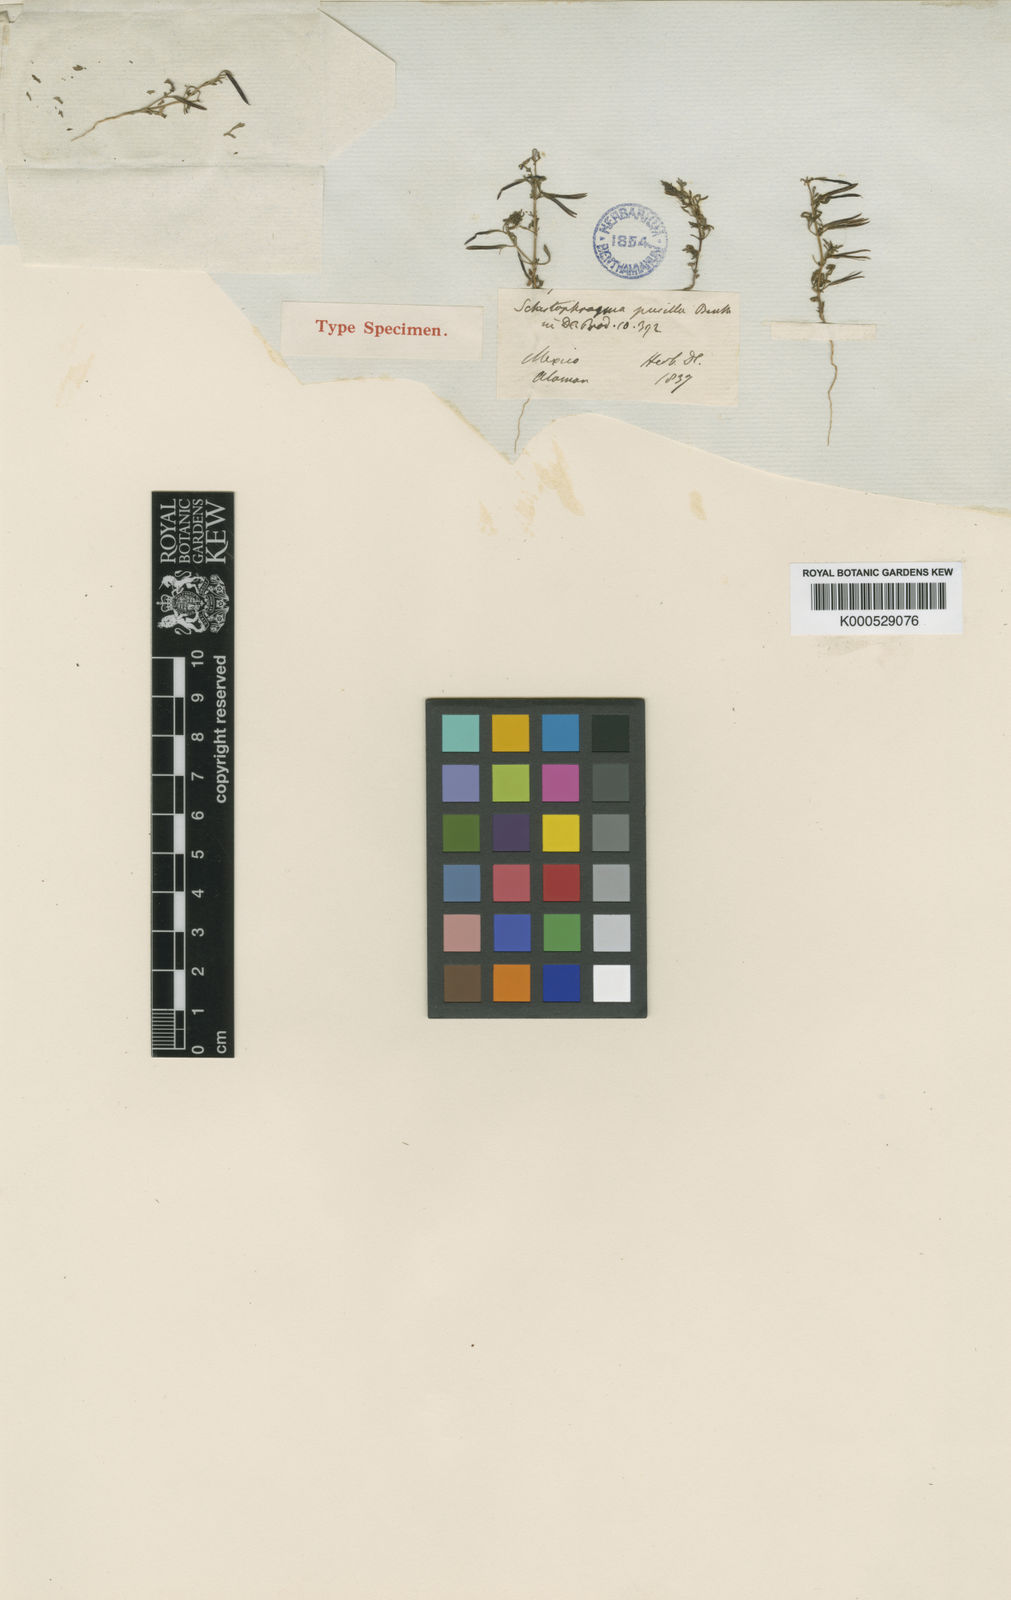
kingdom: Plantae
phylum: Tracheophyta
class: Magnoliopsida
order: Lamiales
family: Plantaginaceae
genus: Schistophragma
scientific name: Schistophragma mexicanum
